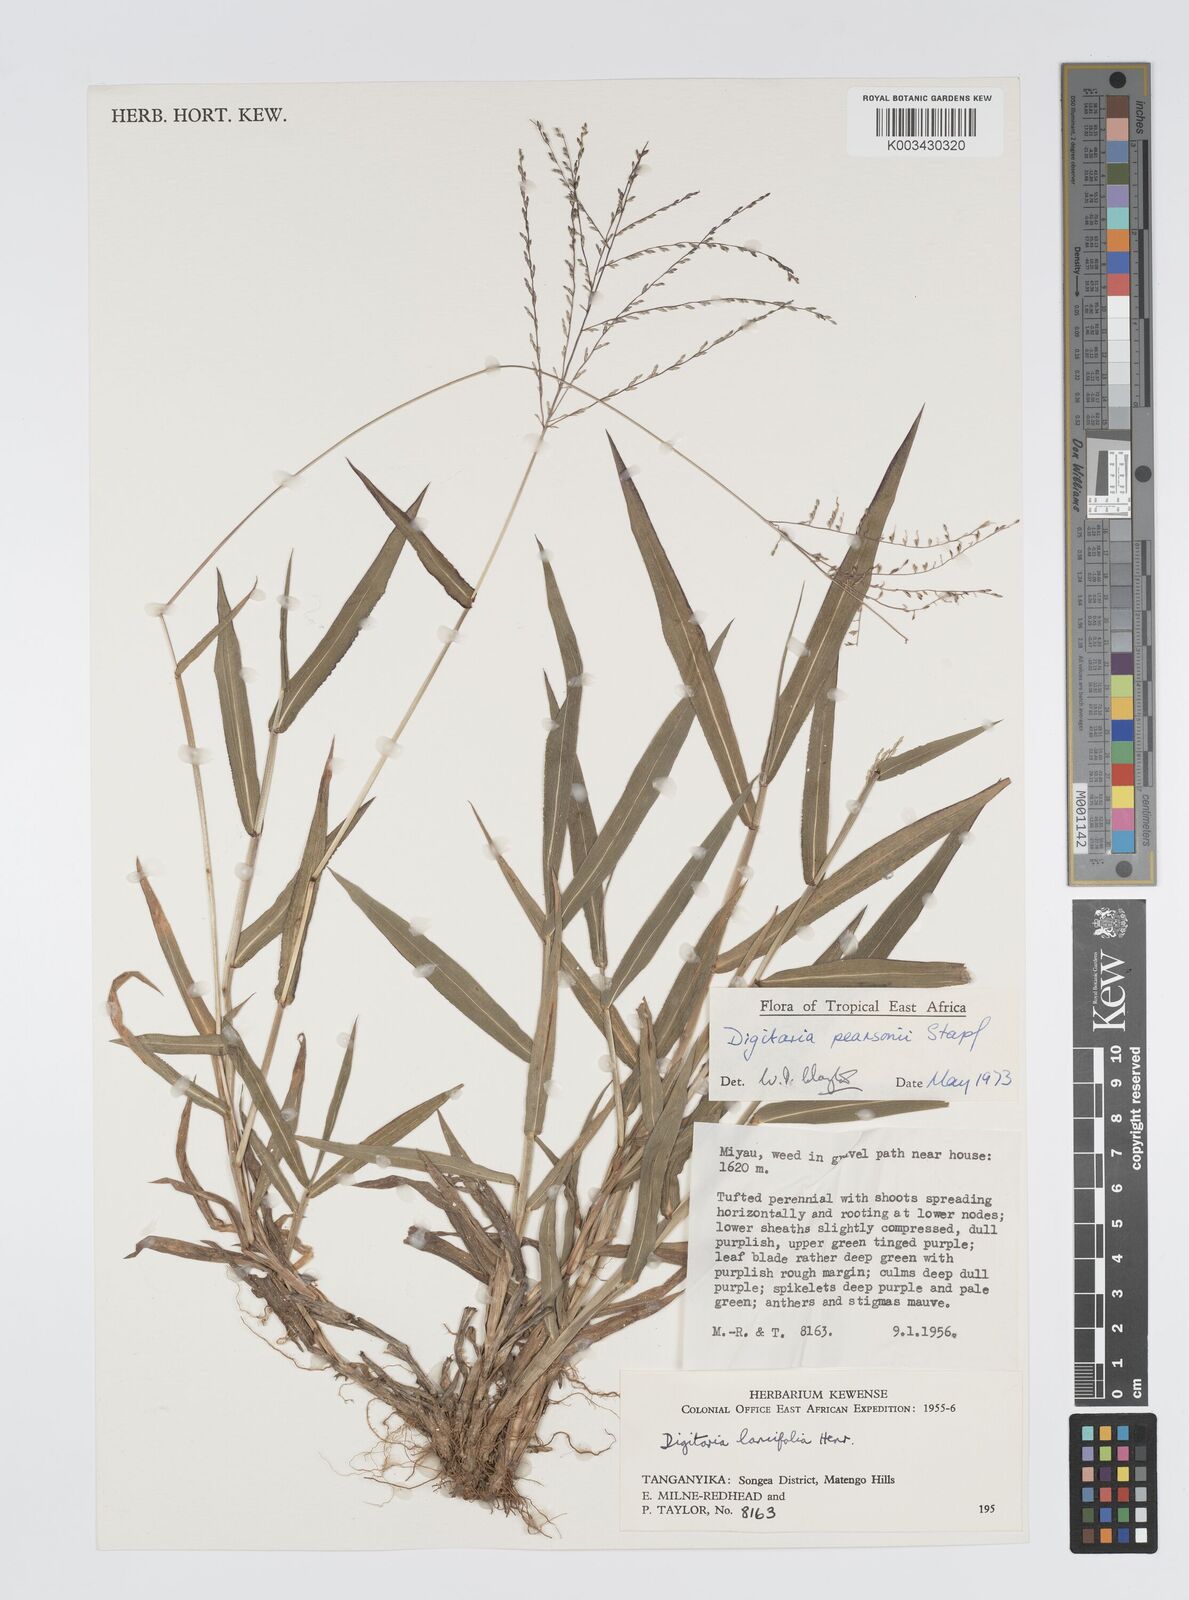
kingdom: Plantae
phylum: Tracheophyta
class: Liliopsida
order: Poales
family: Poaceae
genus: Digitaria
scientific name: Digitaria pearsonii
